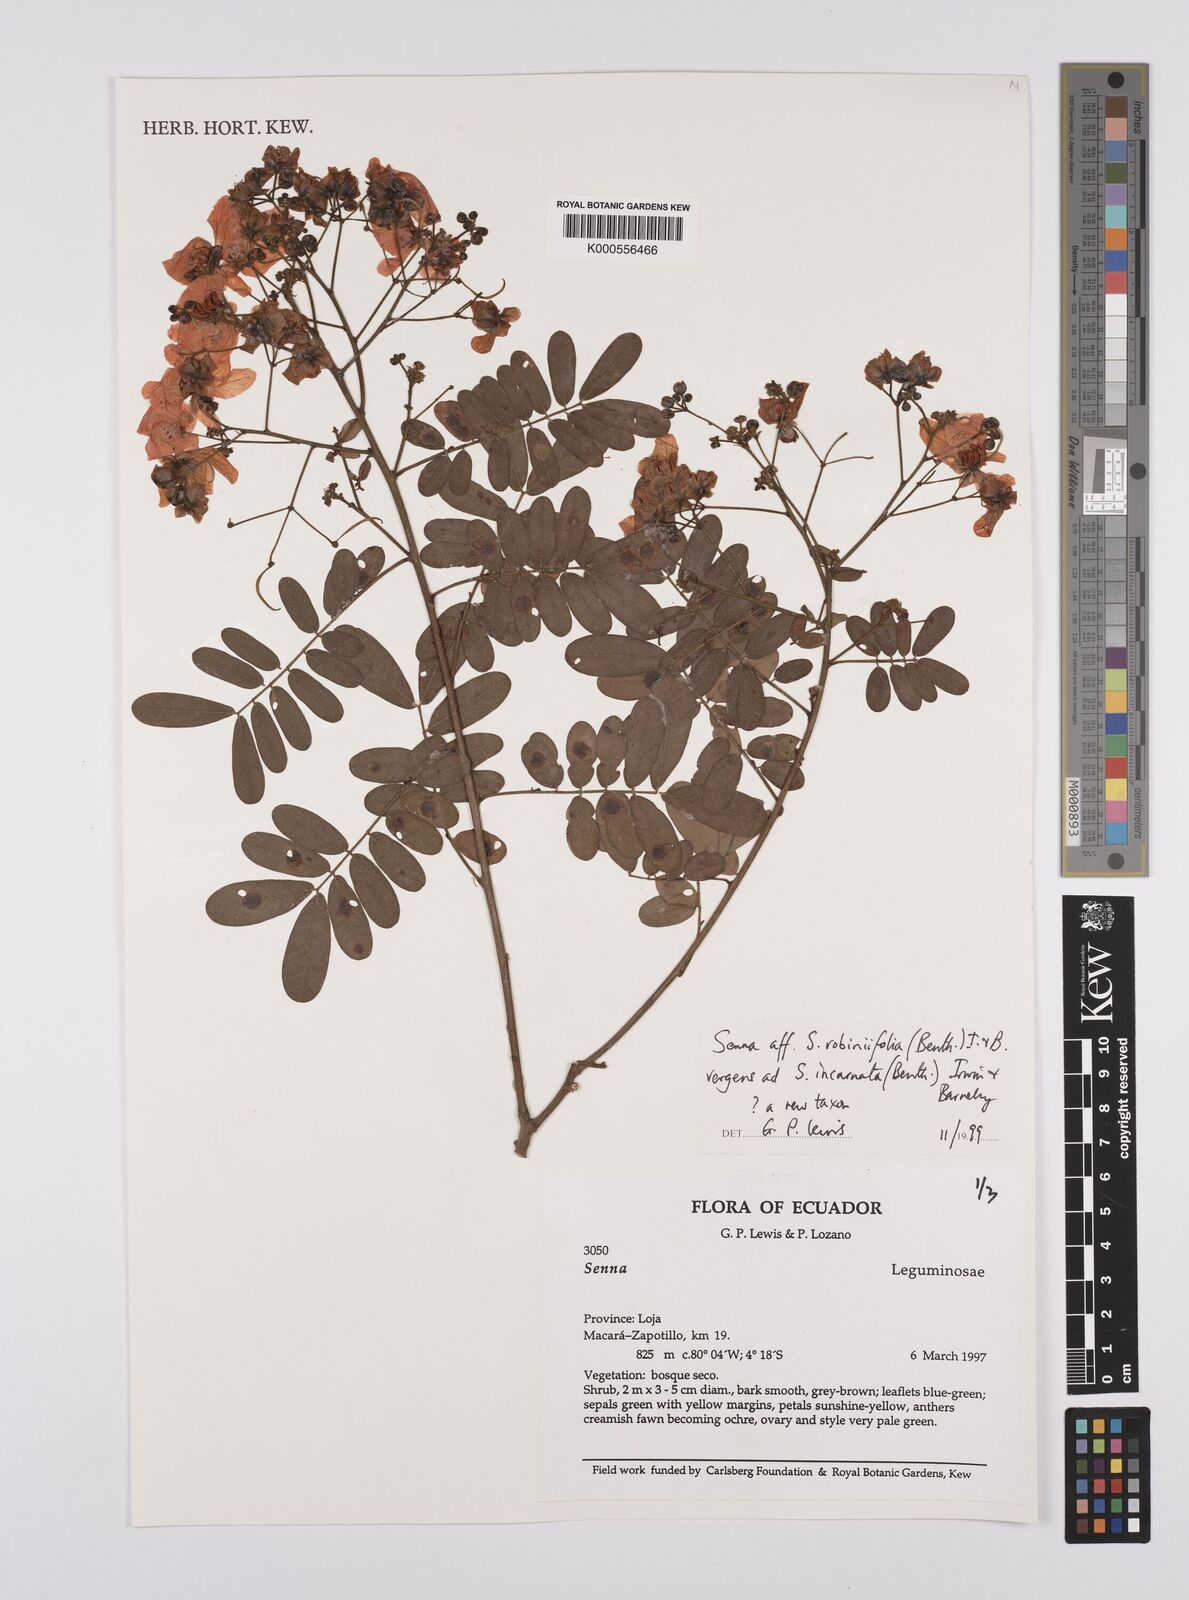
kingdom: Plantae
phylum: Tracheophyta
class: Magnoliopsida
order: Fabales
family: Fabaceae
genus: Senna
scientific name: Senna robiniifolia
